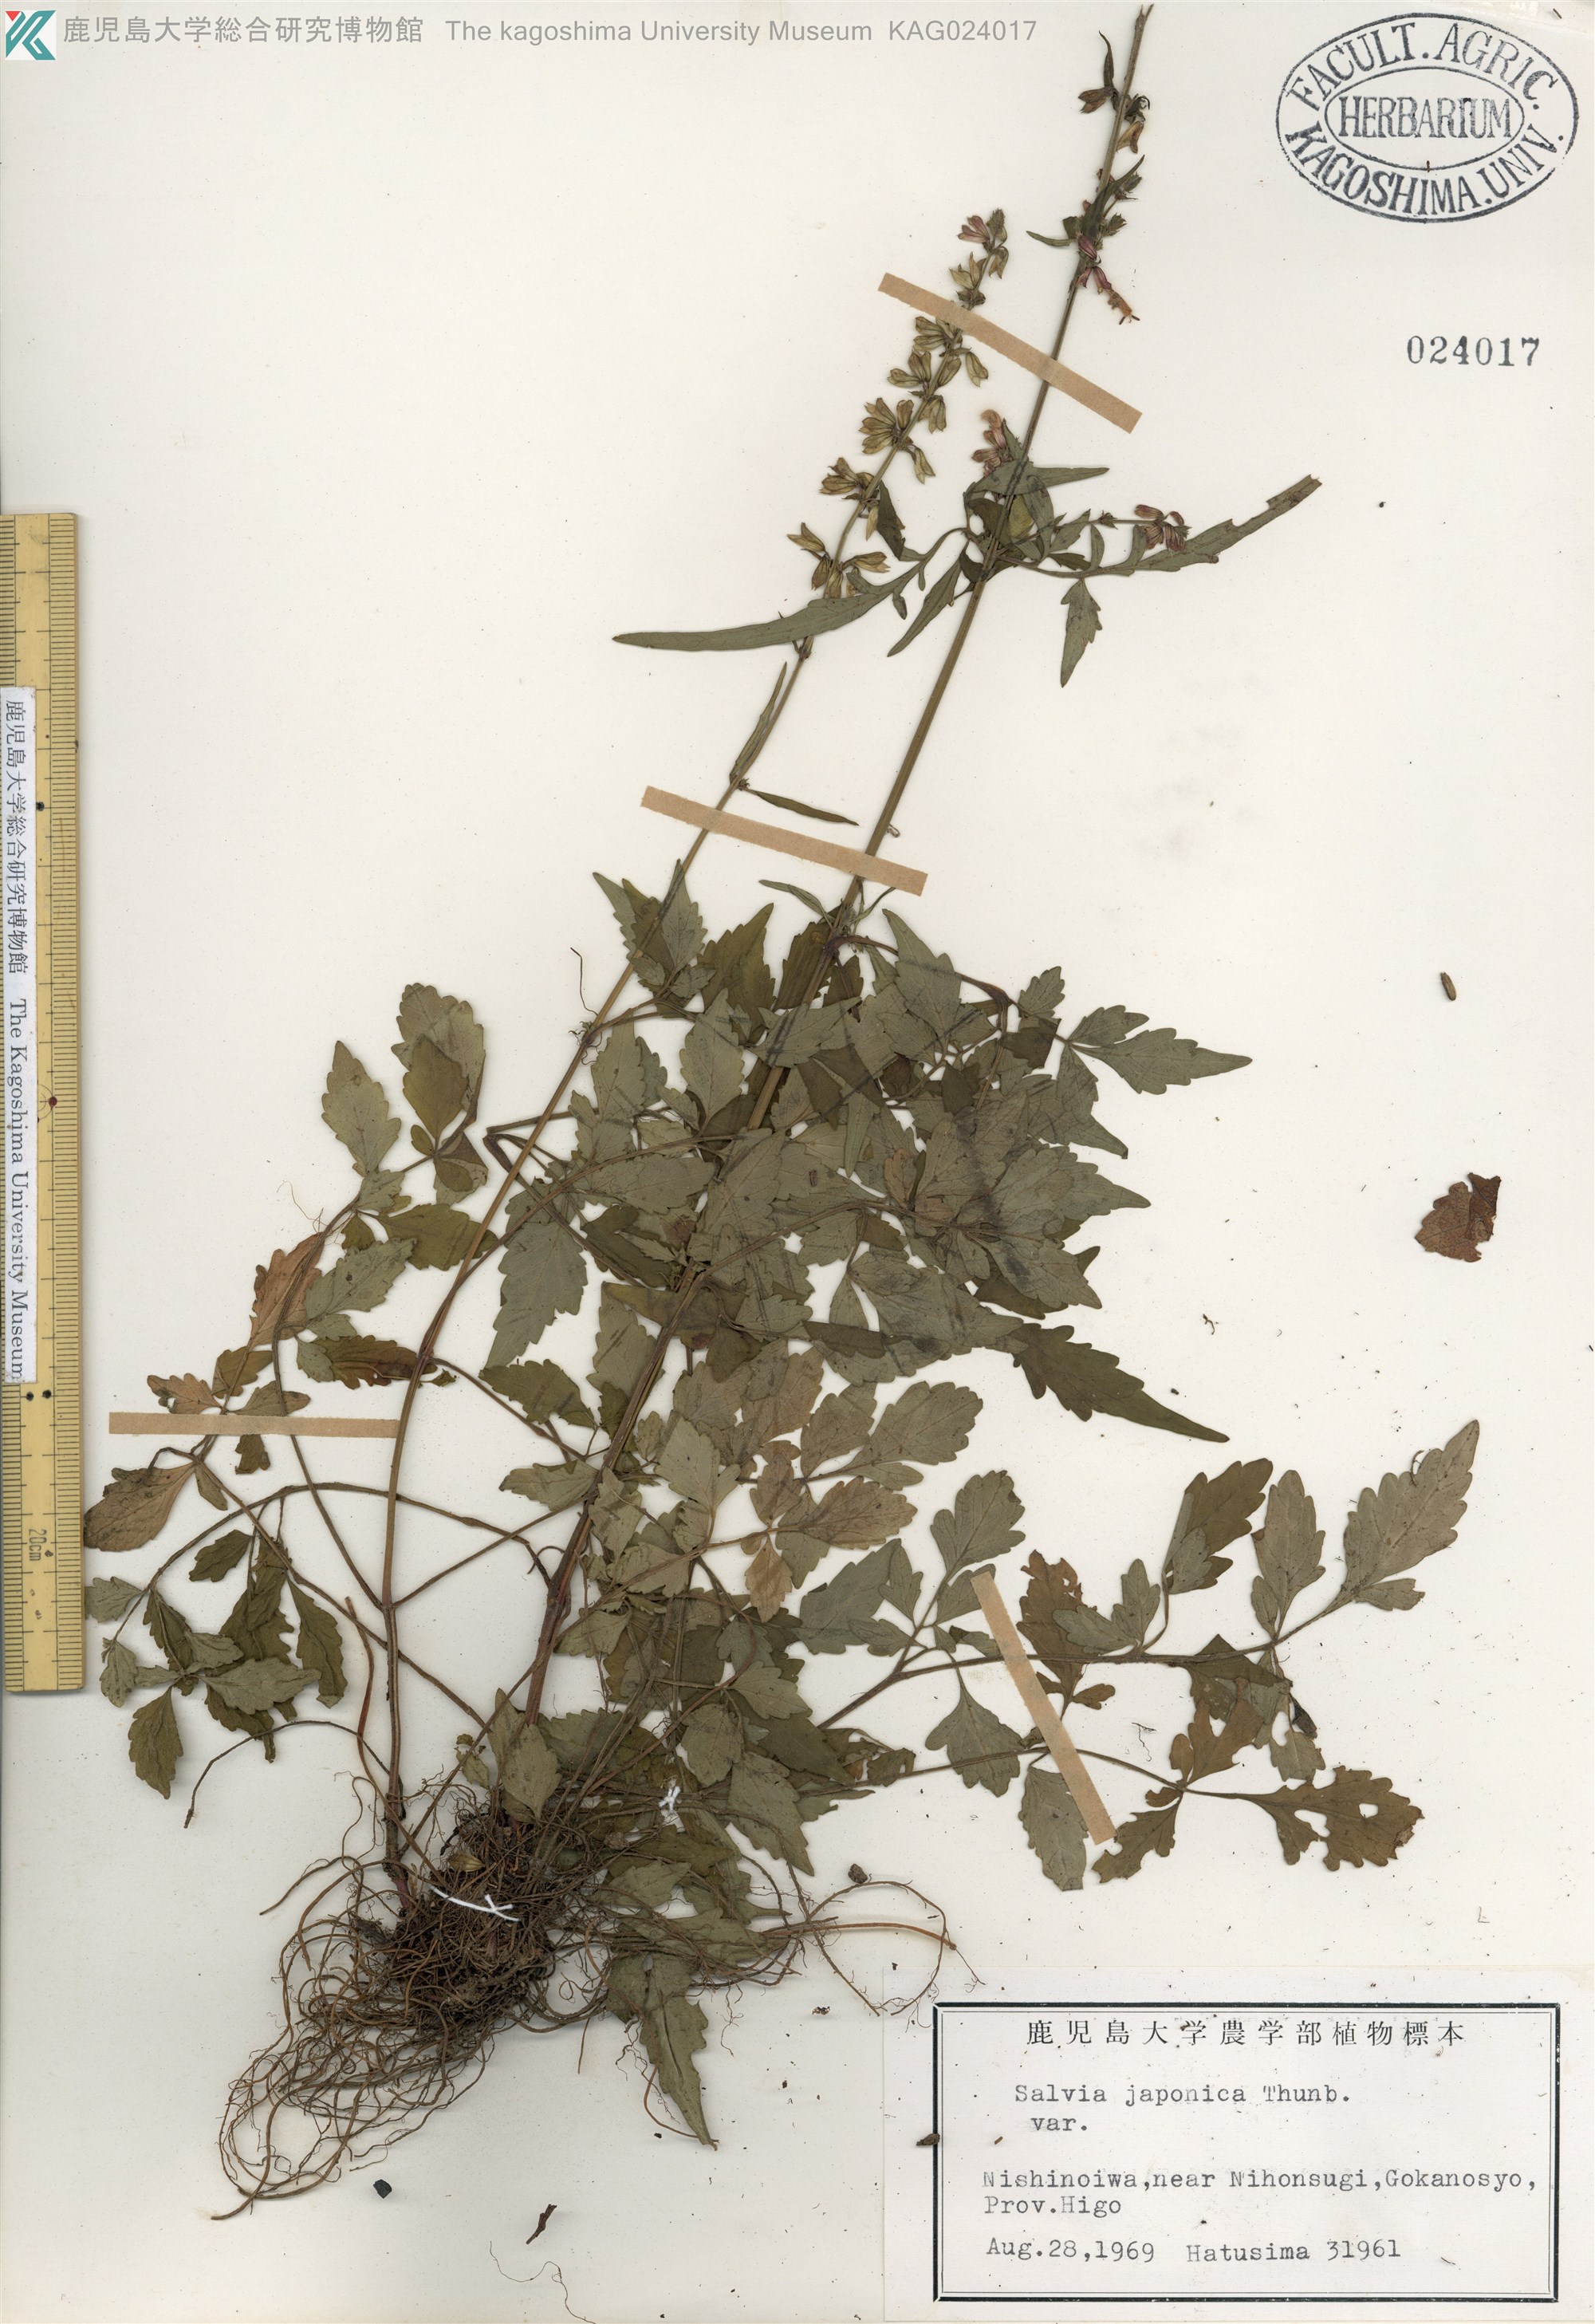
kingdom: Plantae
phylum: Tracheophyta
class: Magnoliopsida
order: Lamiales
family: Lamiaceae
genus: Salvia
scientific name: Salvia japonica
